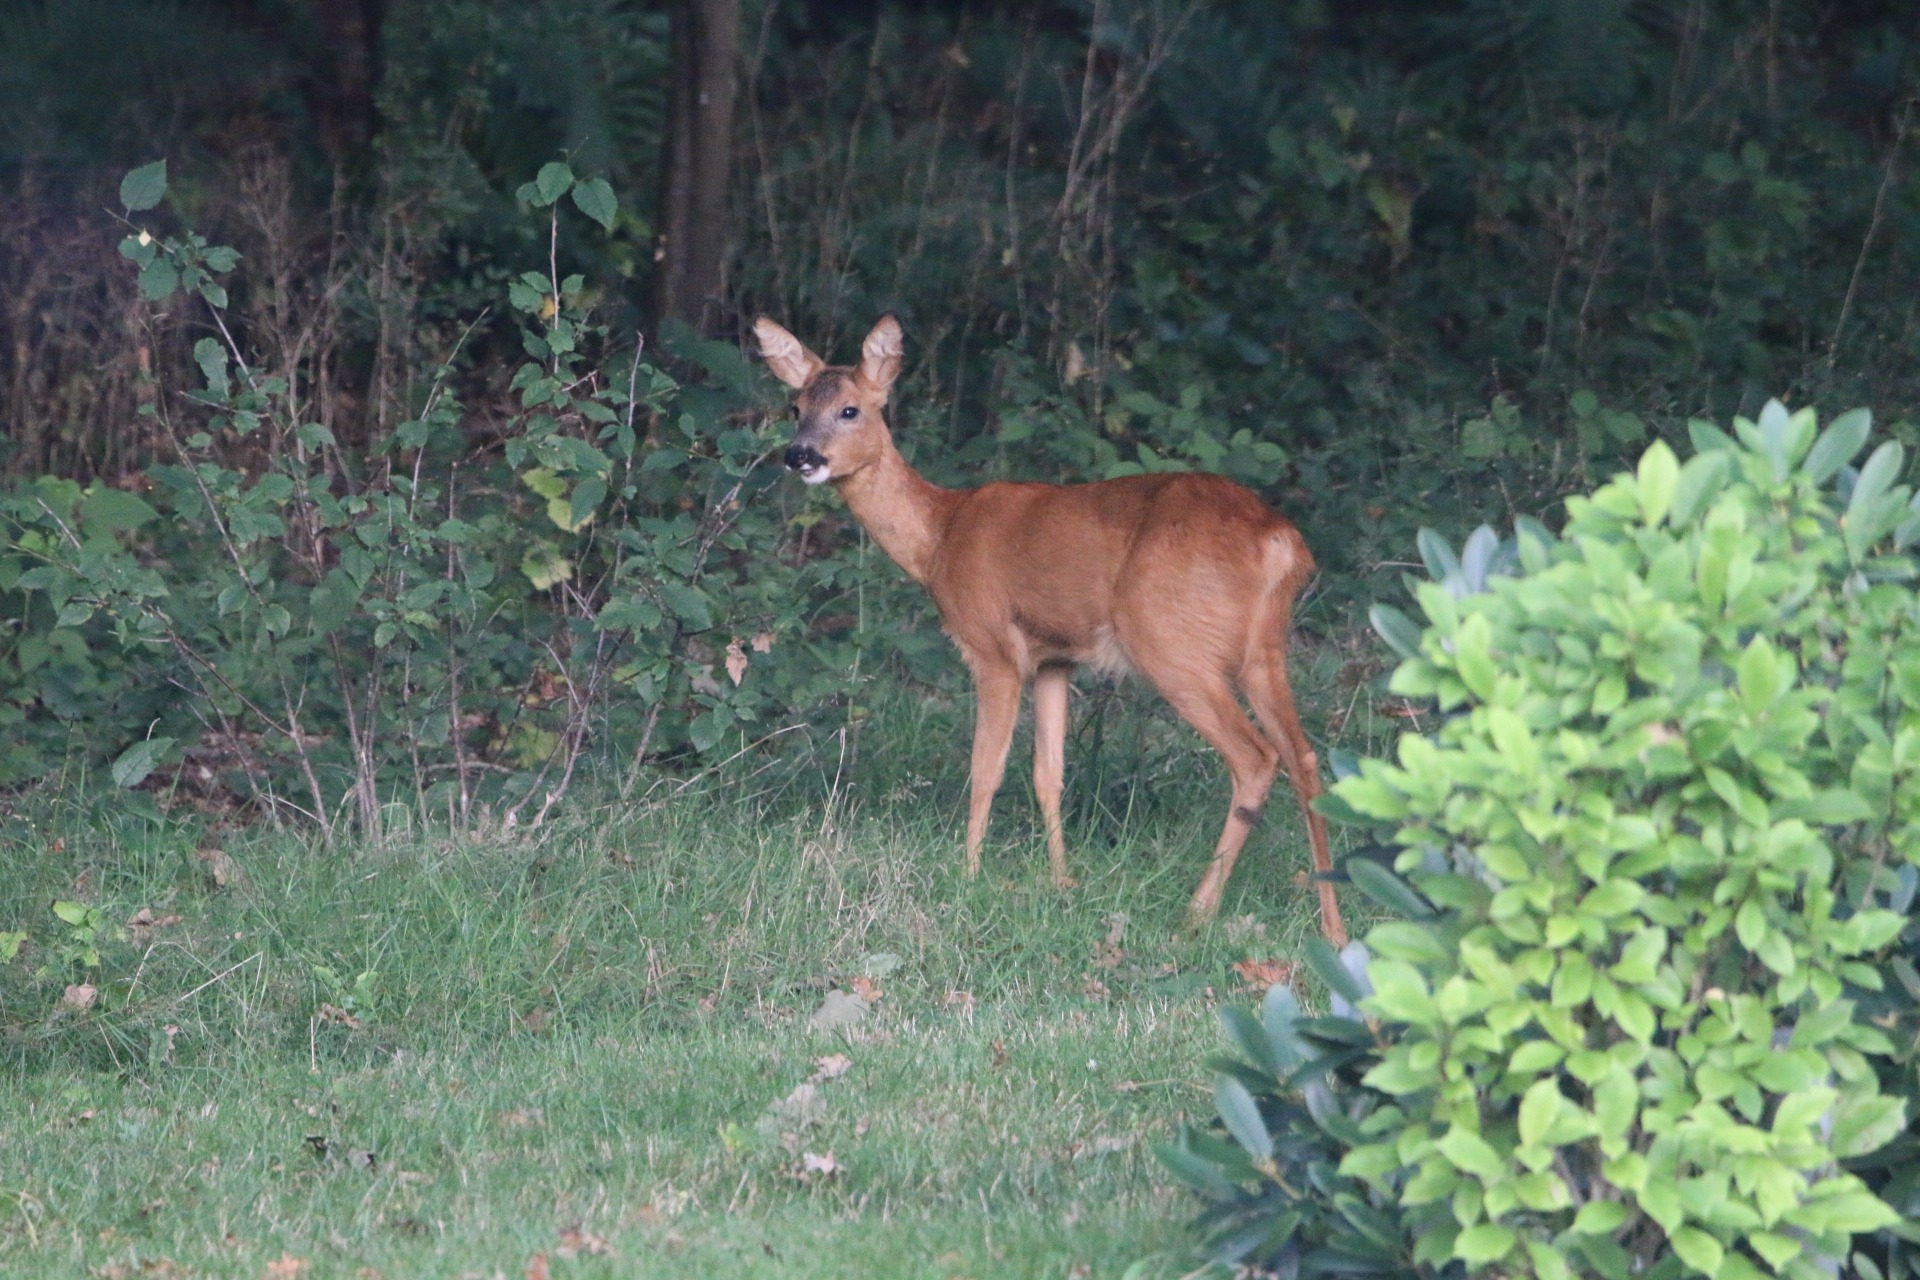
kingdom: Animalia
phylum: Chordata
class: Mammalia
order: Artiodactyla
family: Cervidae
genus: Capreolus
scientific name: Capreolus capreolus
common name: Rådyr
